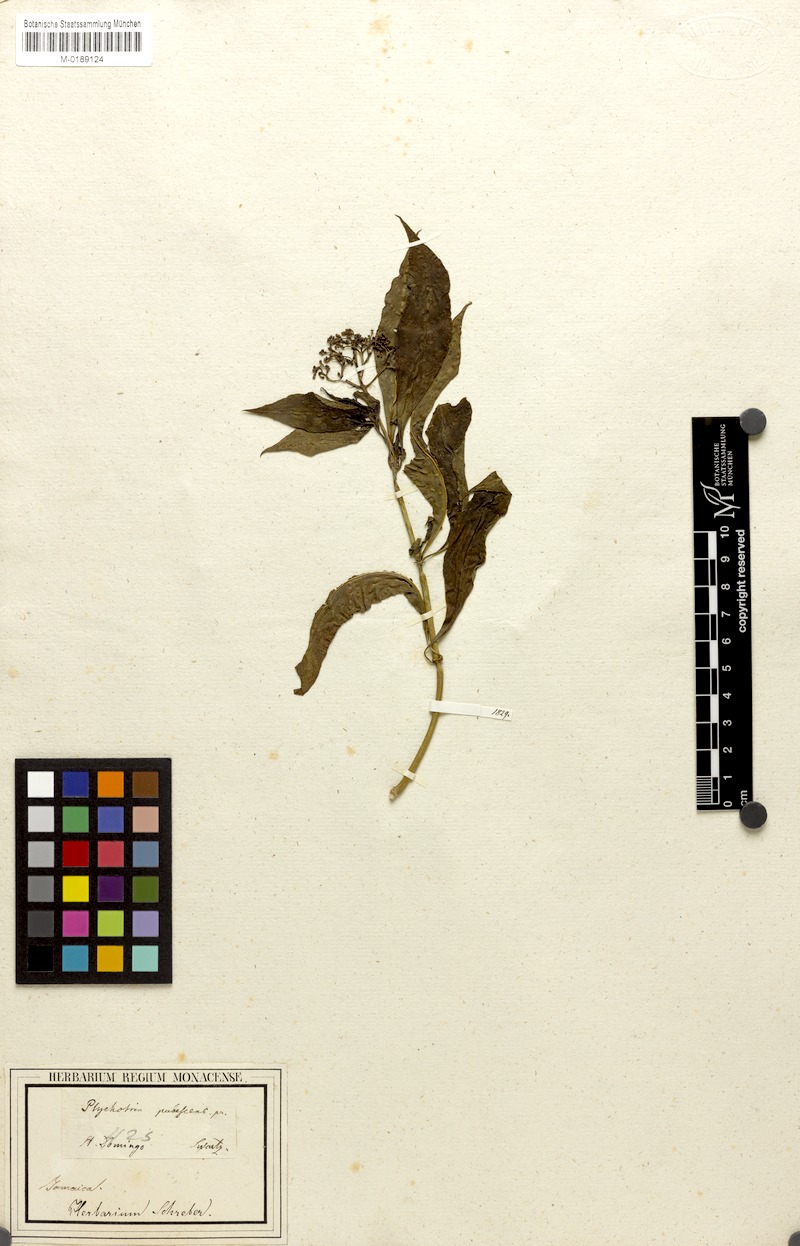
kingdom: Plantae
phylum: Tracheophyta
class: Magnoliopsida
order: Gentianales
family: Rubiaceae
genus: Palicourea
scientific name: Palicourea pubescens
